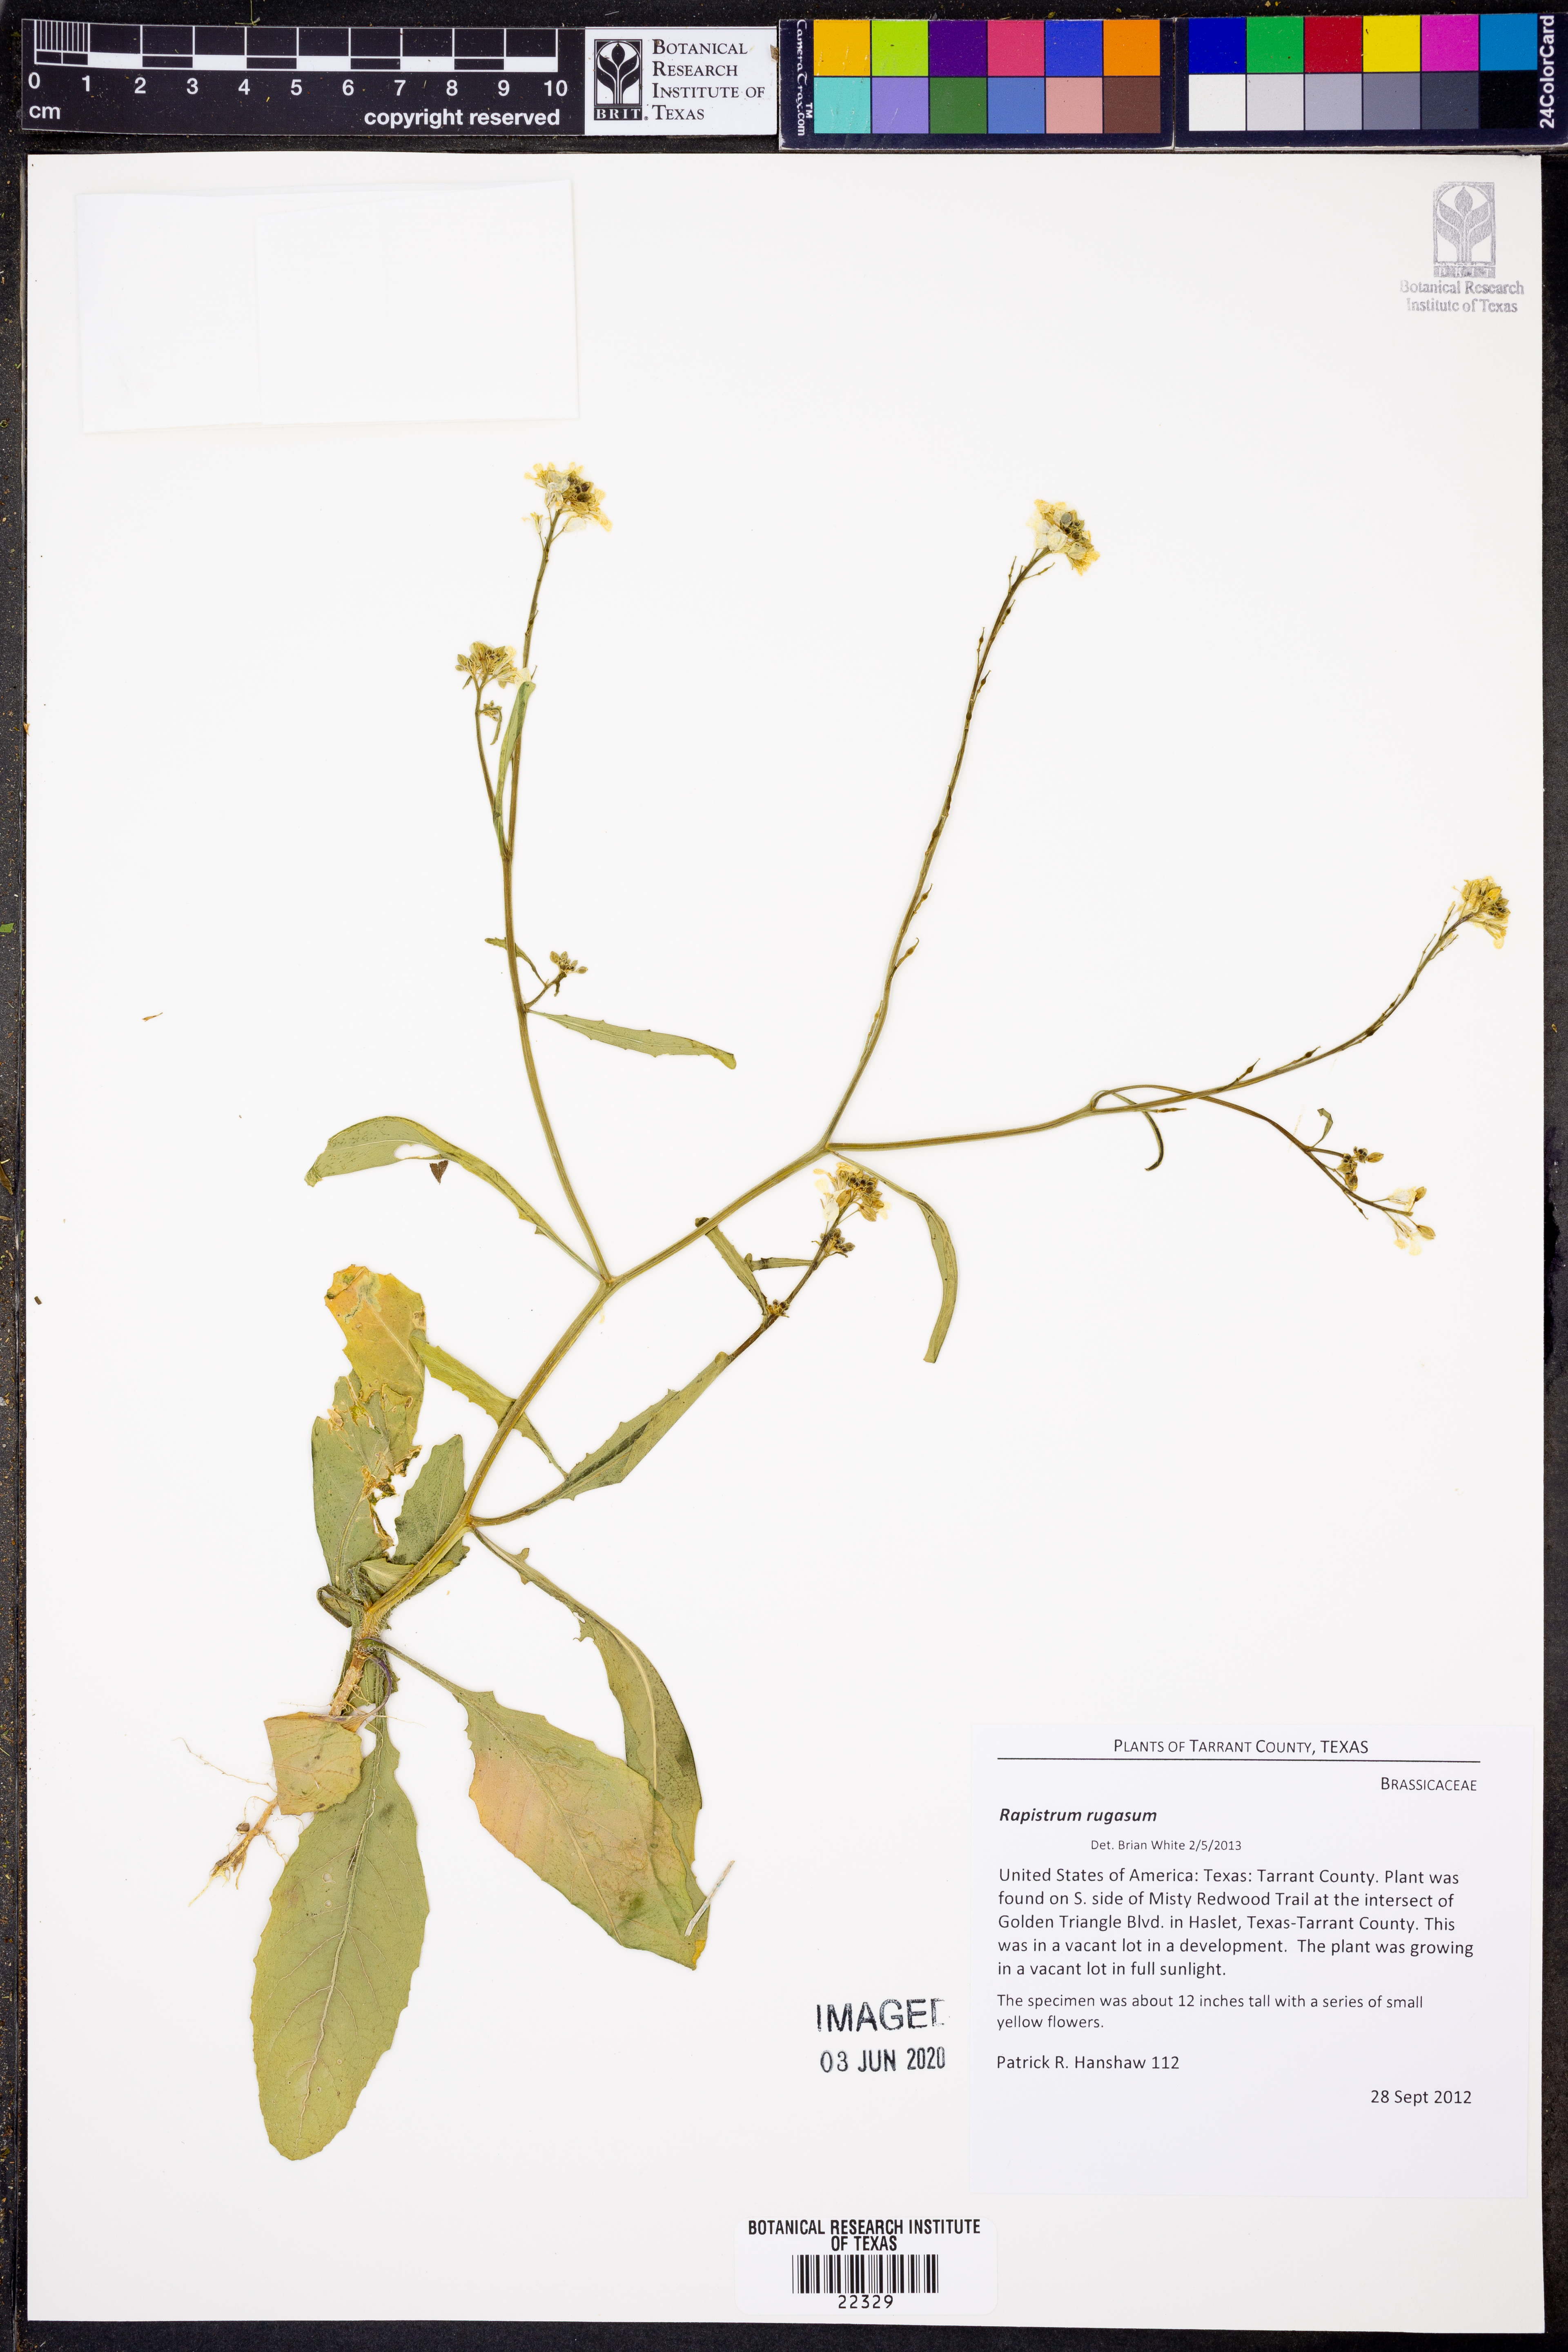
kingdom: Plantae
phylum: Tracheophyta
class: Magnoliopsida
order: Brassicales
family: Brassicaceae
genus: Rapistrum
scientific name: Rapistrum rugosum
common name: Annual bastardcabbage
